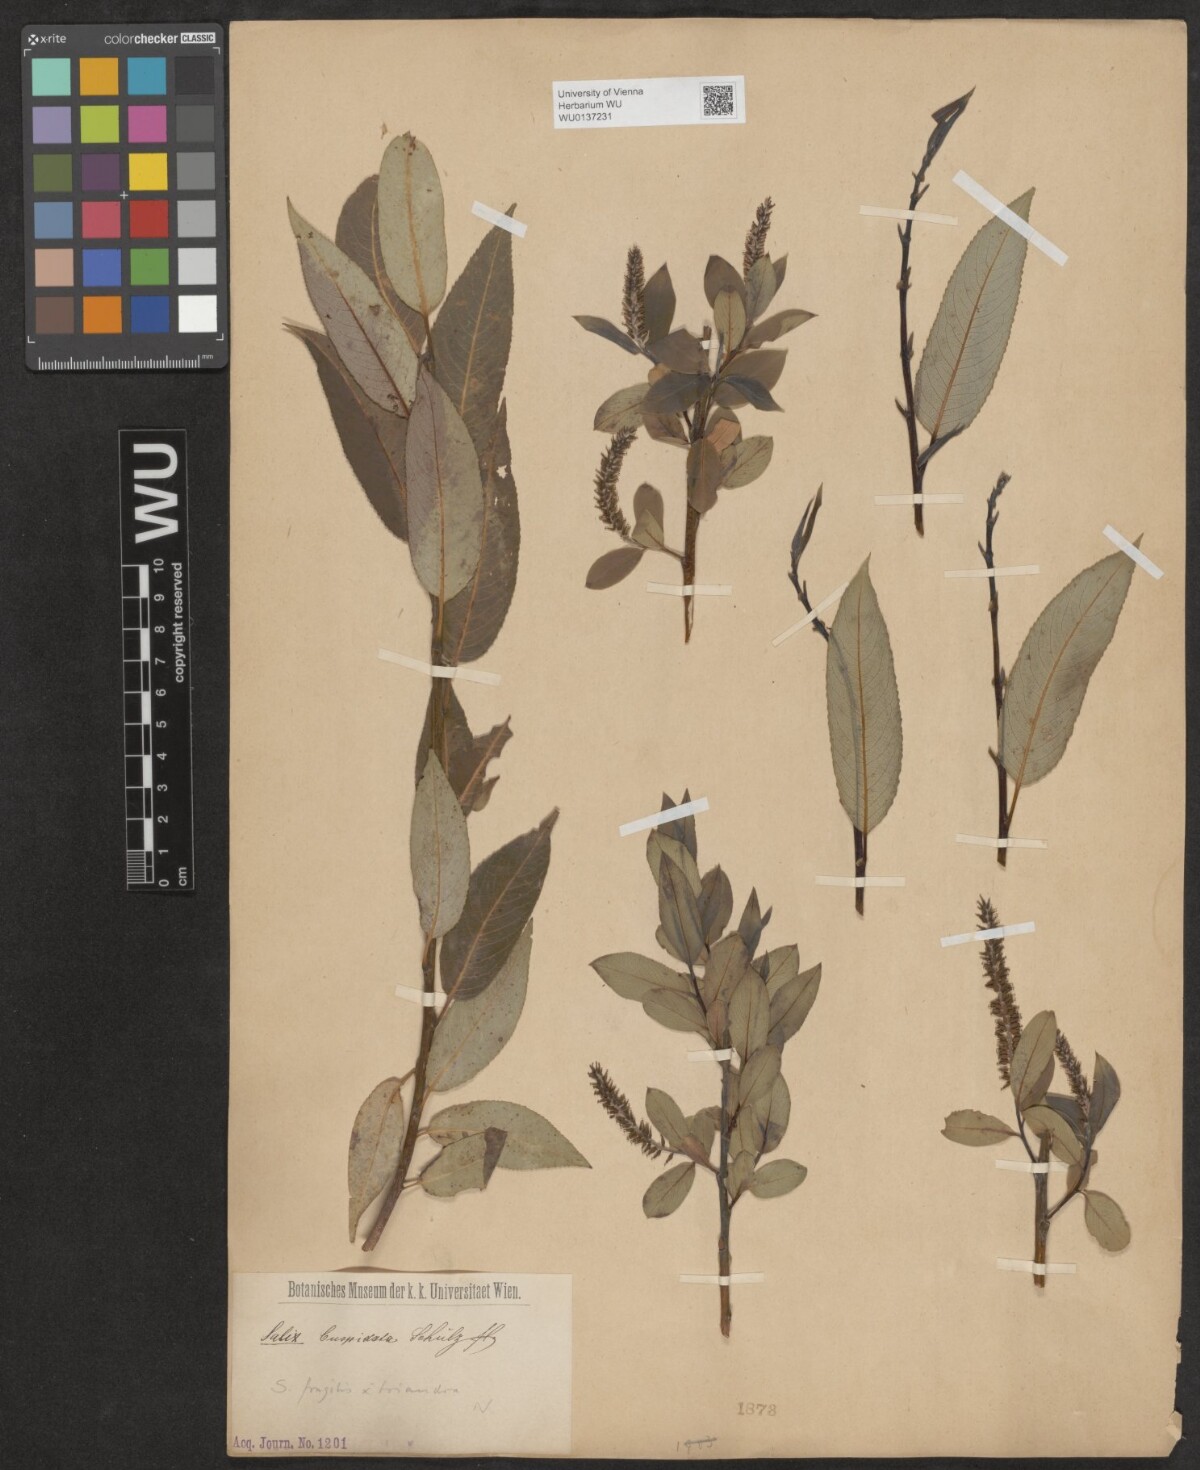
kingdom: Plantae
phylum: Tracheophyta
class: Magnoliopsida
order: Malpighiales
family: Salicaceae
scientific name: Salicaceae
